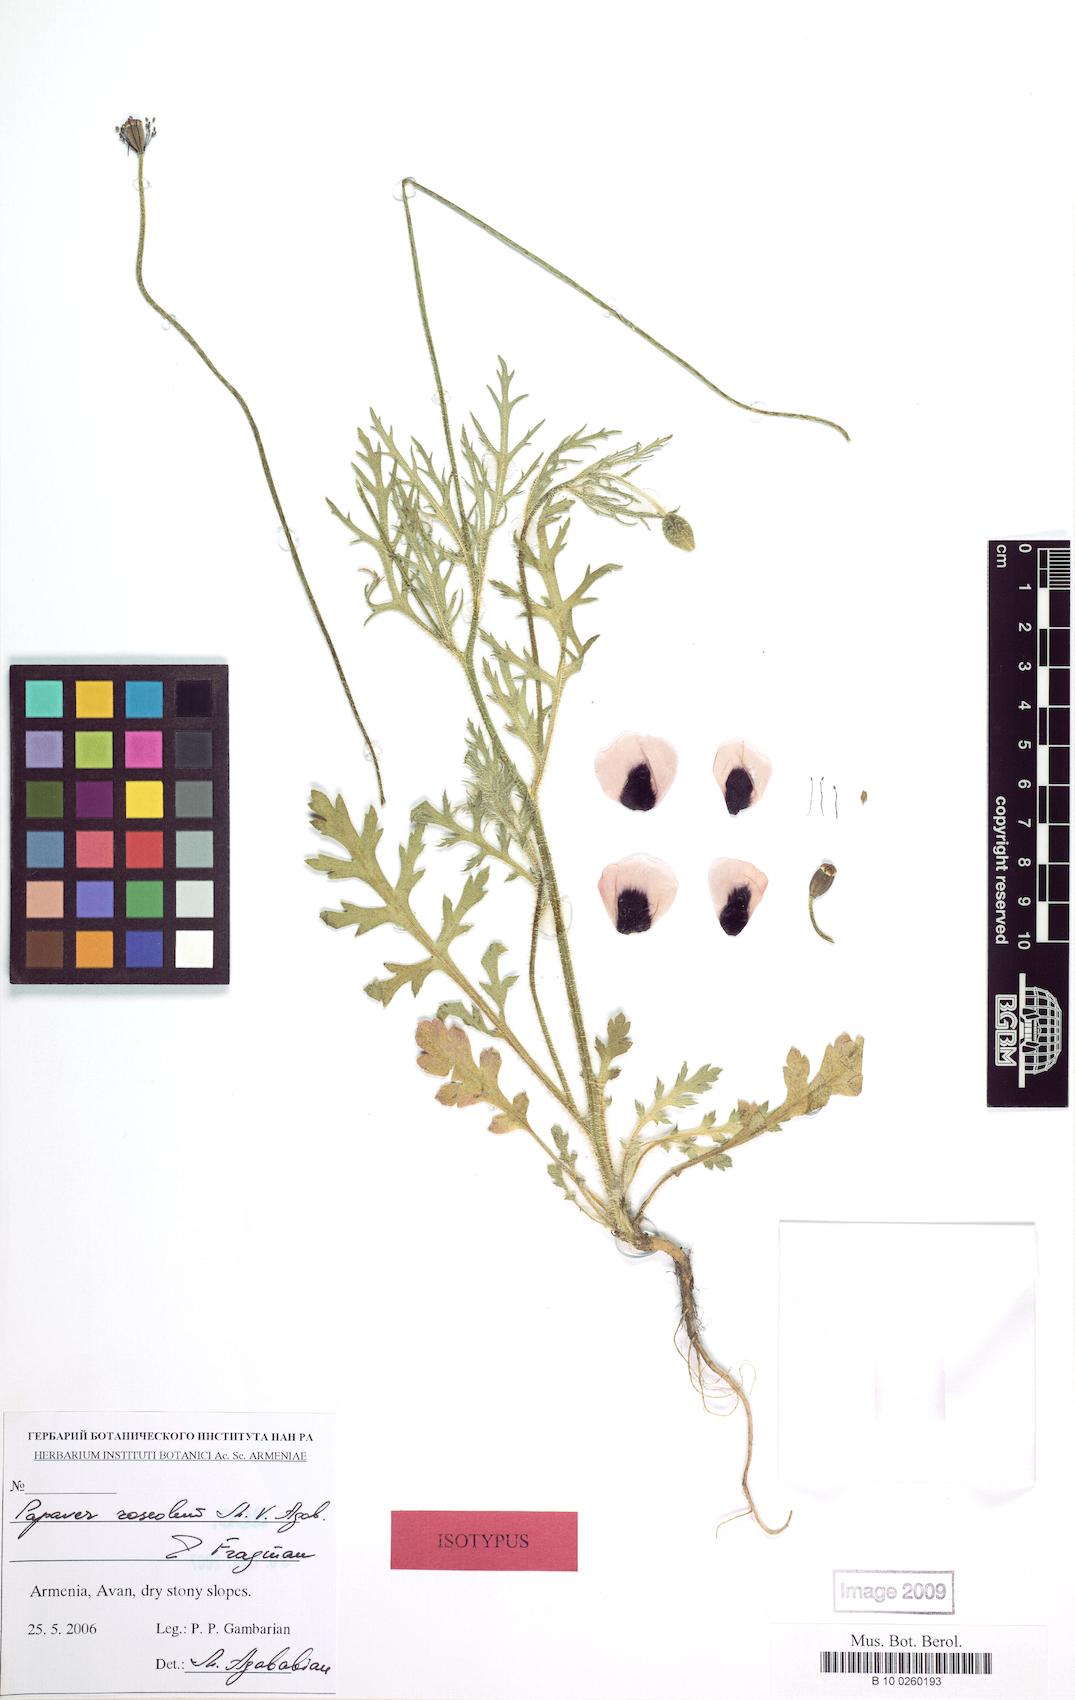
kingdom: Plantae
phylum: Tracheophyta
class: Magnoliopsida
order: Ranunculales
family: Papaveraceae
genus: Papaver
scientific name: Papaver roseolum
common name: Pinkish poppy
